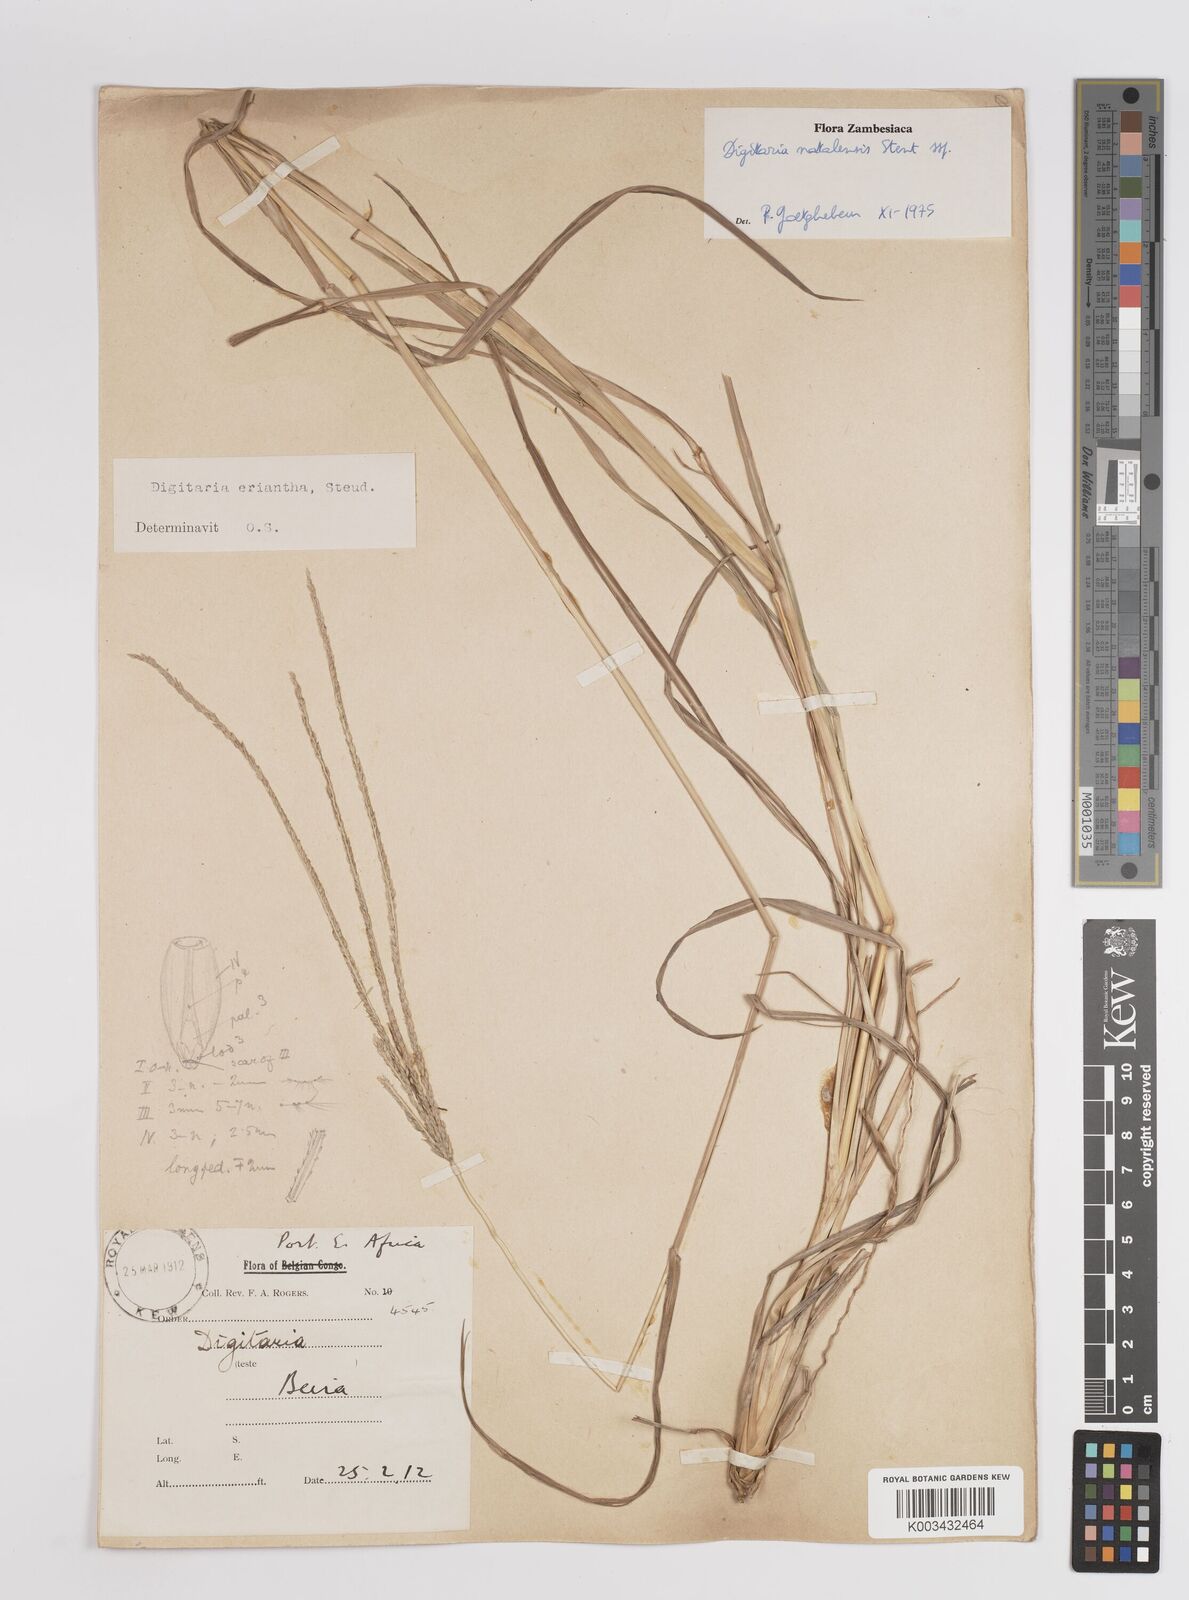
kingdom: Plantae
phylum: Tracheophyta
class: Liliopsida
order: Poales
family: Poaceae
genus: Digitaria
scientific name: Digitaria natalensis
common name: Coast finger grass
